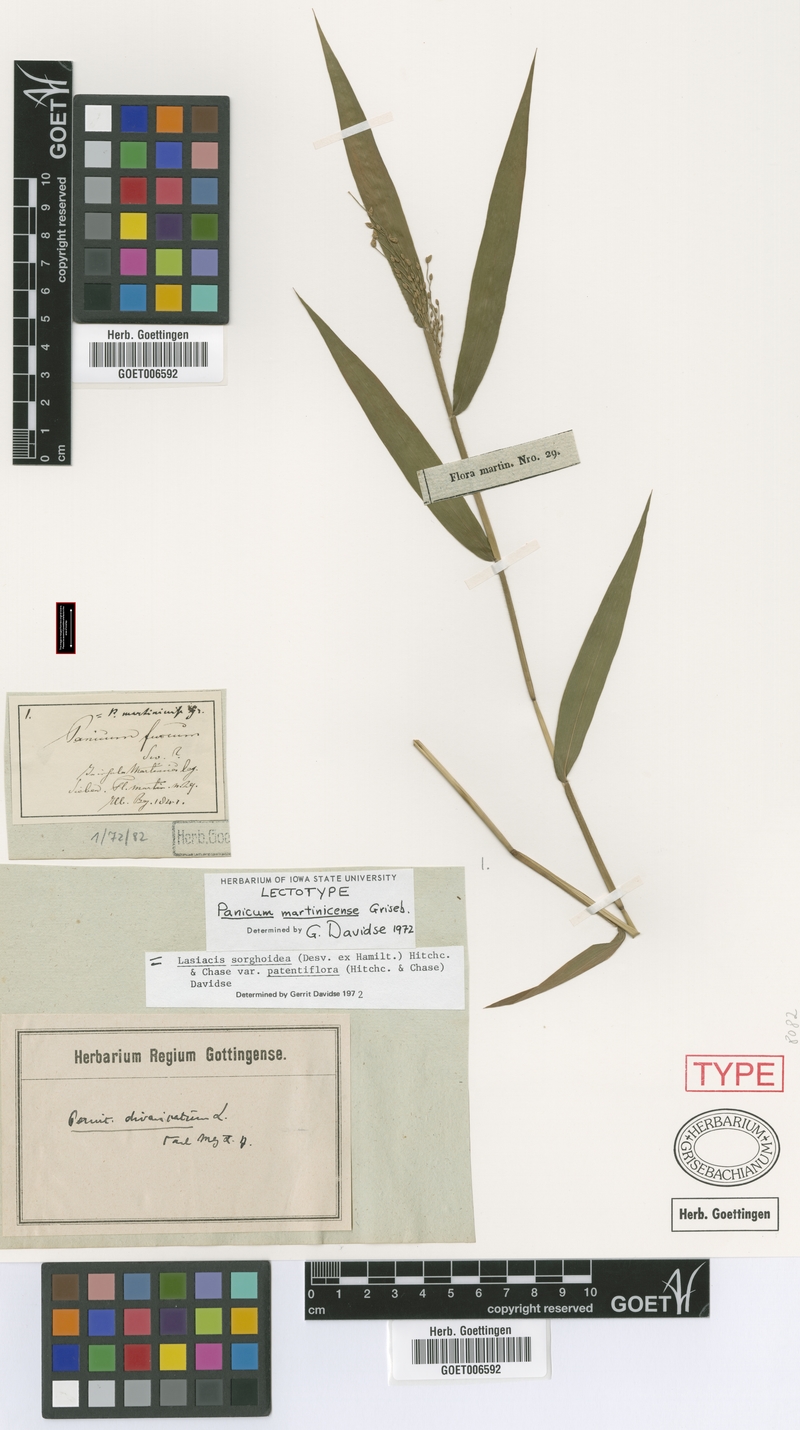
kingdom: Plantae
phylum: Tracheophyta
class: Liliopsida
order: Poales
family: Poaceae
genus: Lasiacis
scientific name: Lasiacis maculata
